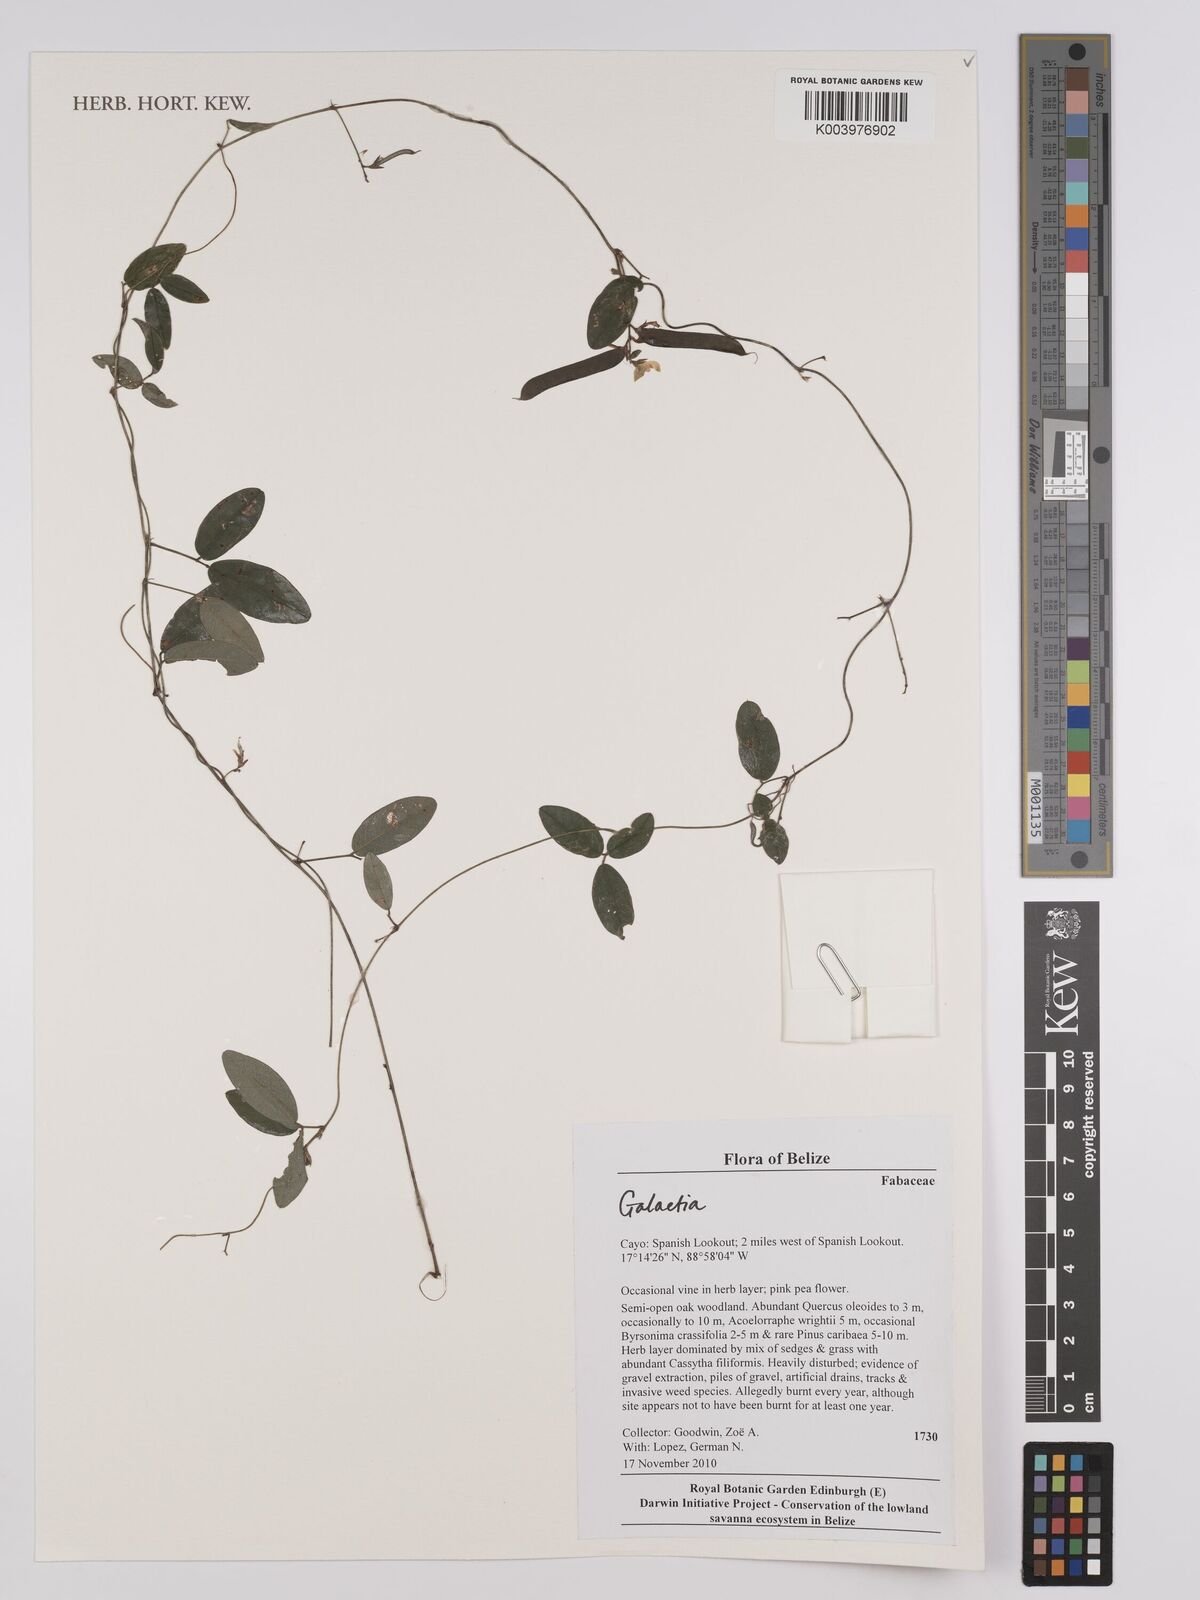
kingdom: Plantae
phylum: Tracheophyta
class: Magnoliopsida
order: Fabales
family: Fabaceae
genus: Galactia
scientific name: Galactia
